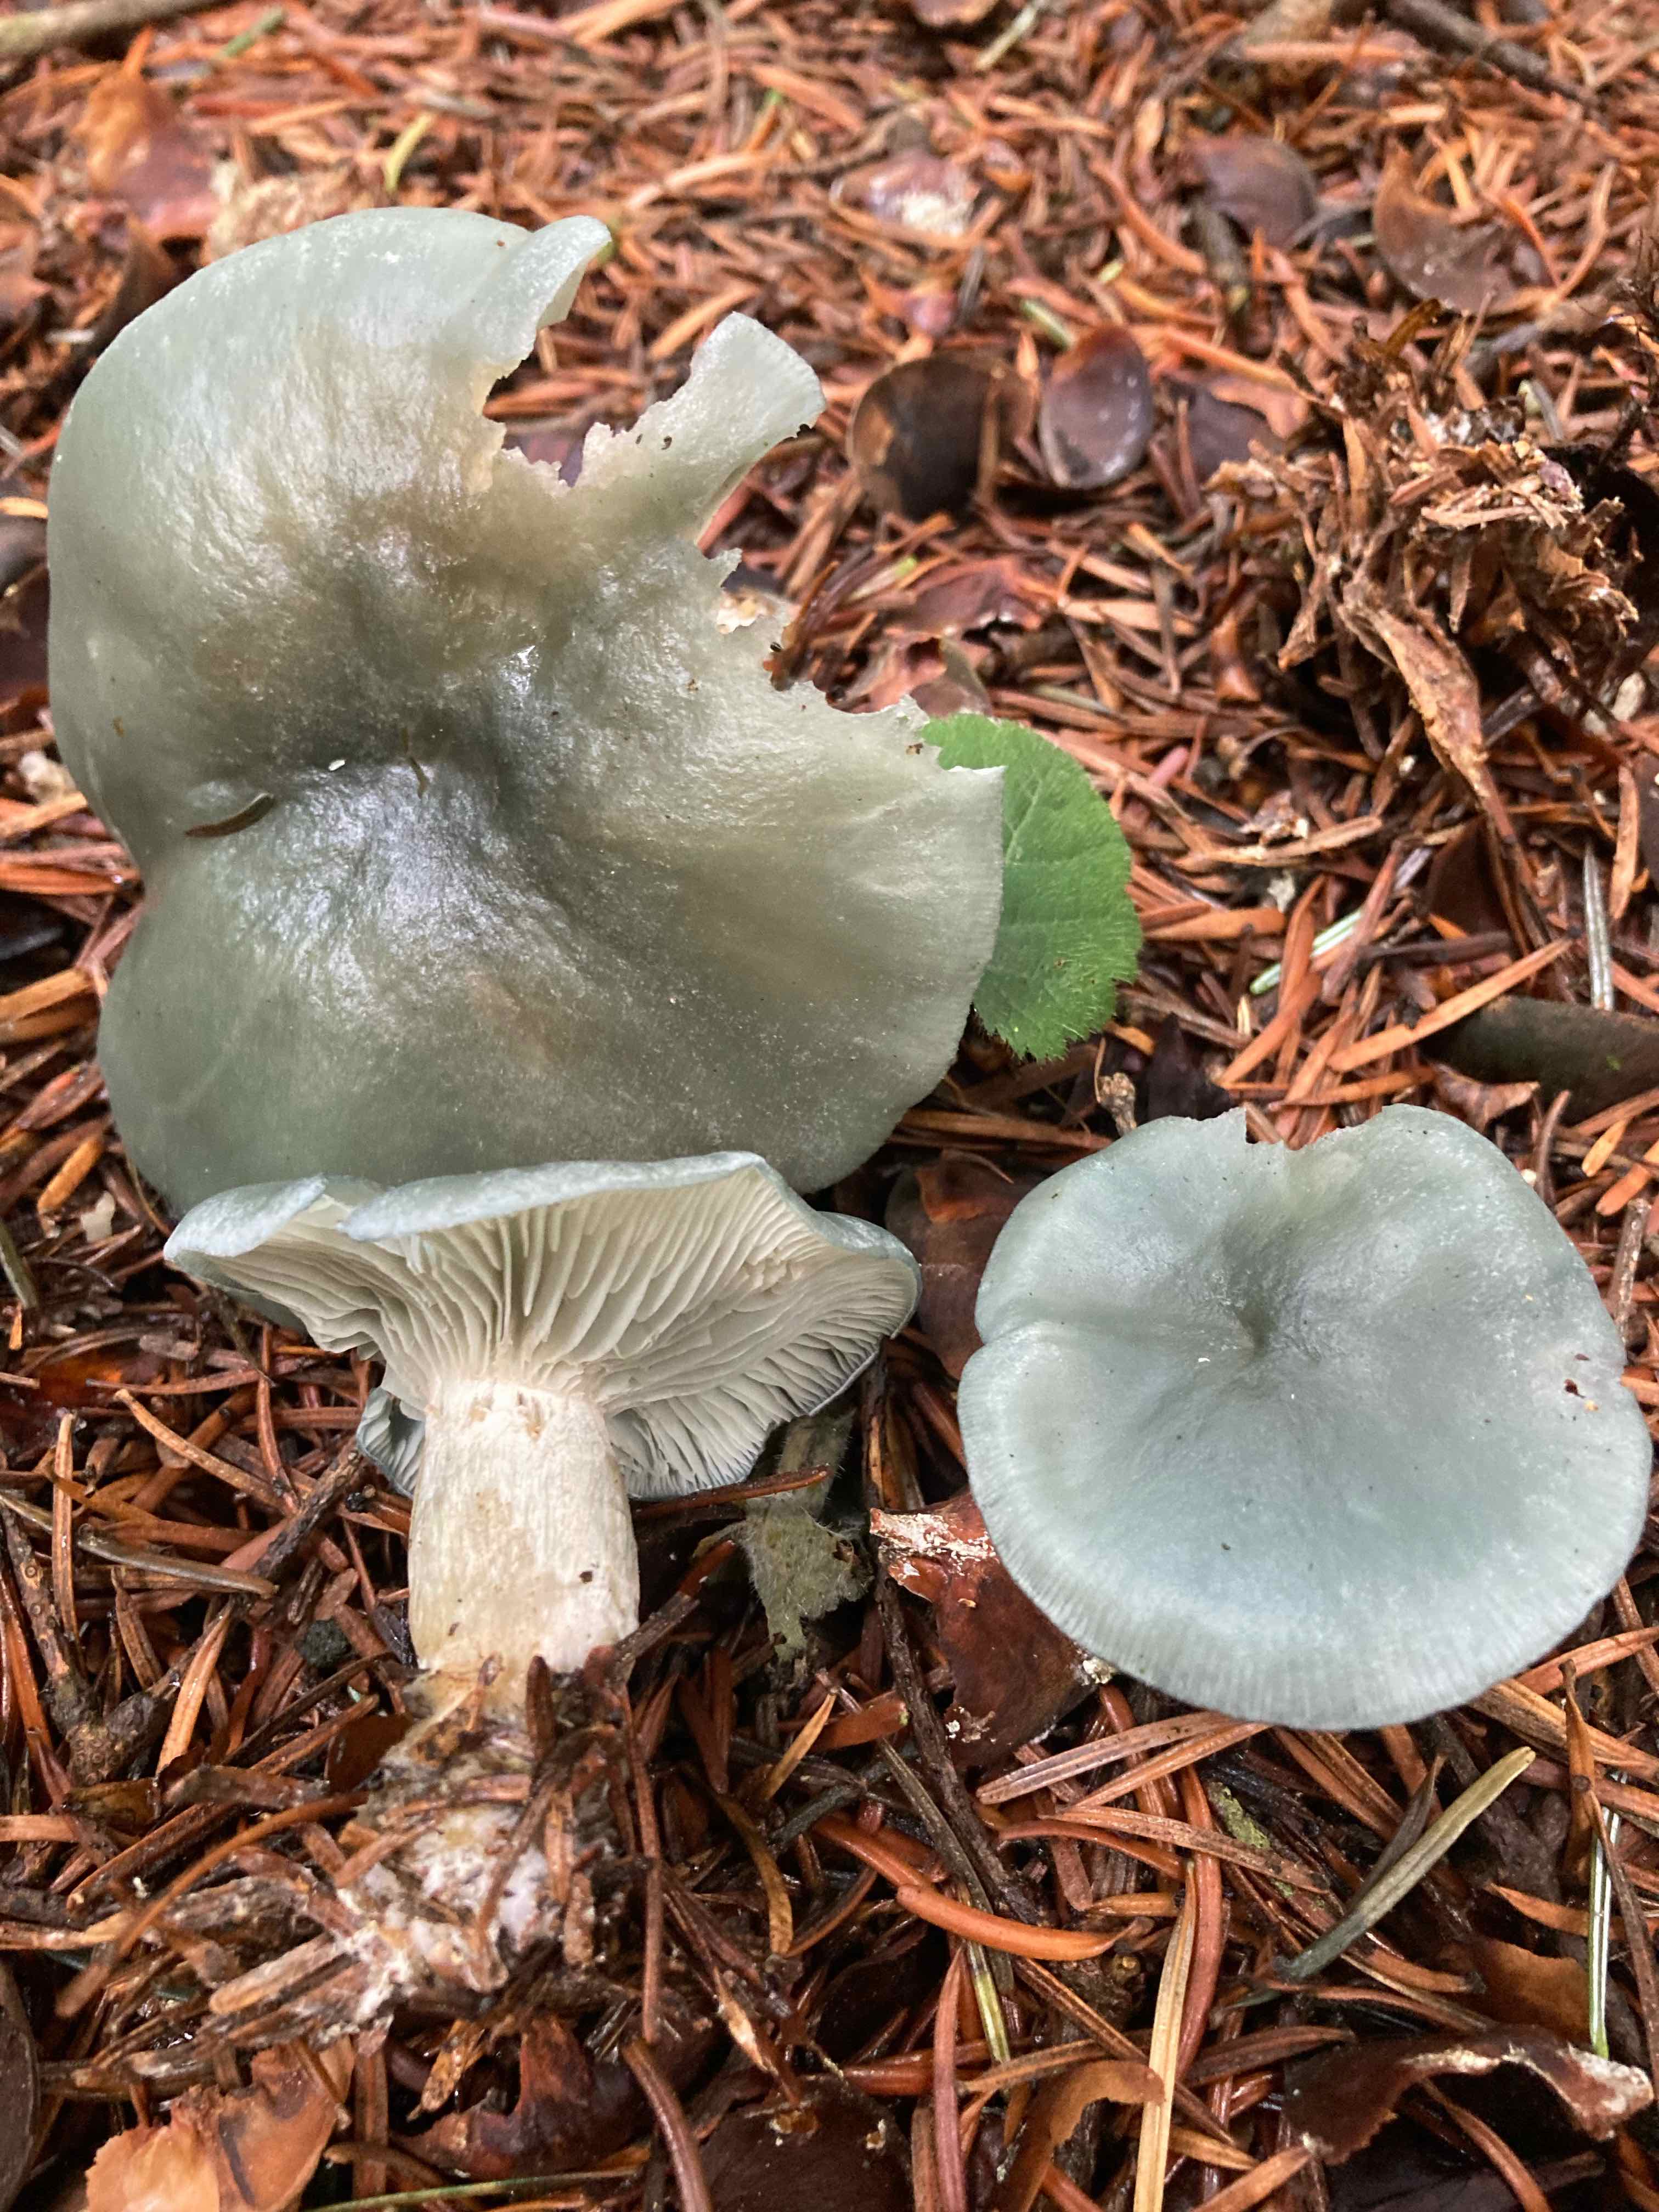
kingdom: Fungi
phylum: Basidiomycota
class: Agaricomycetes
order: Agaricales
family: Tricholomataceae
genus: Clitocybe
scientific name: Clitocybe odora
